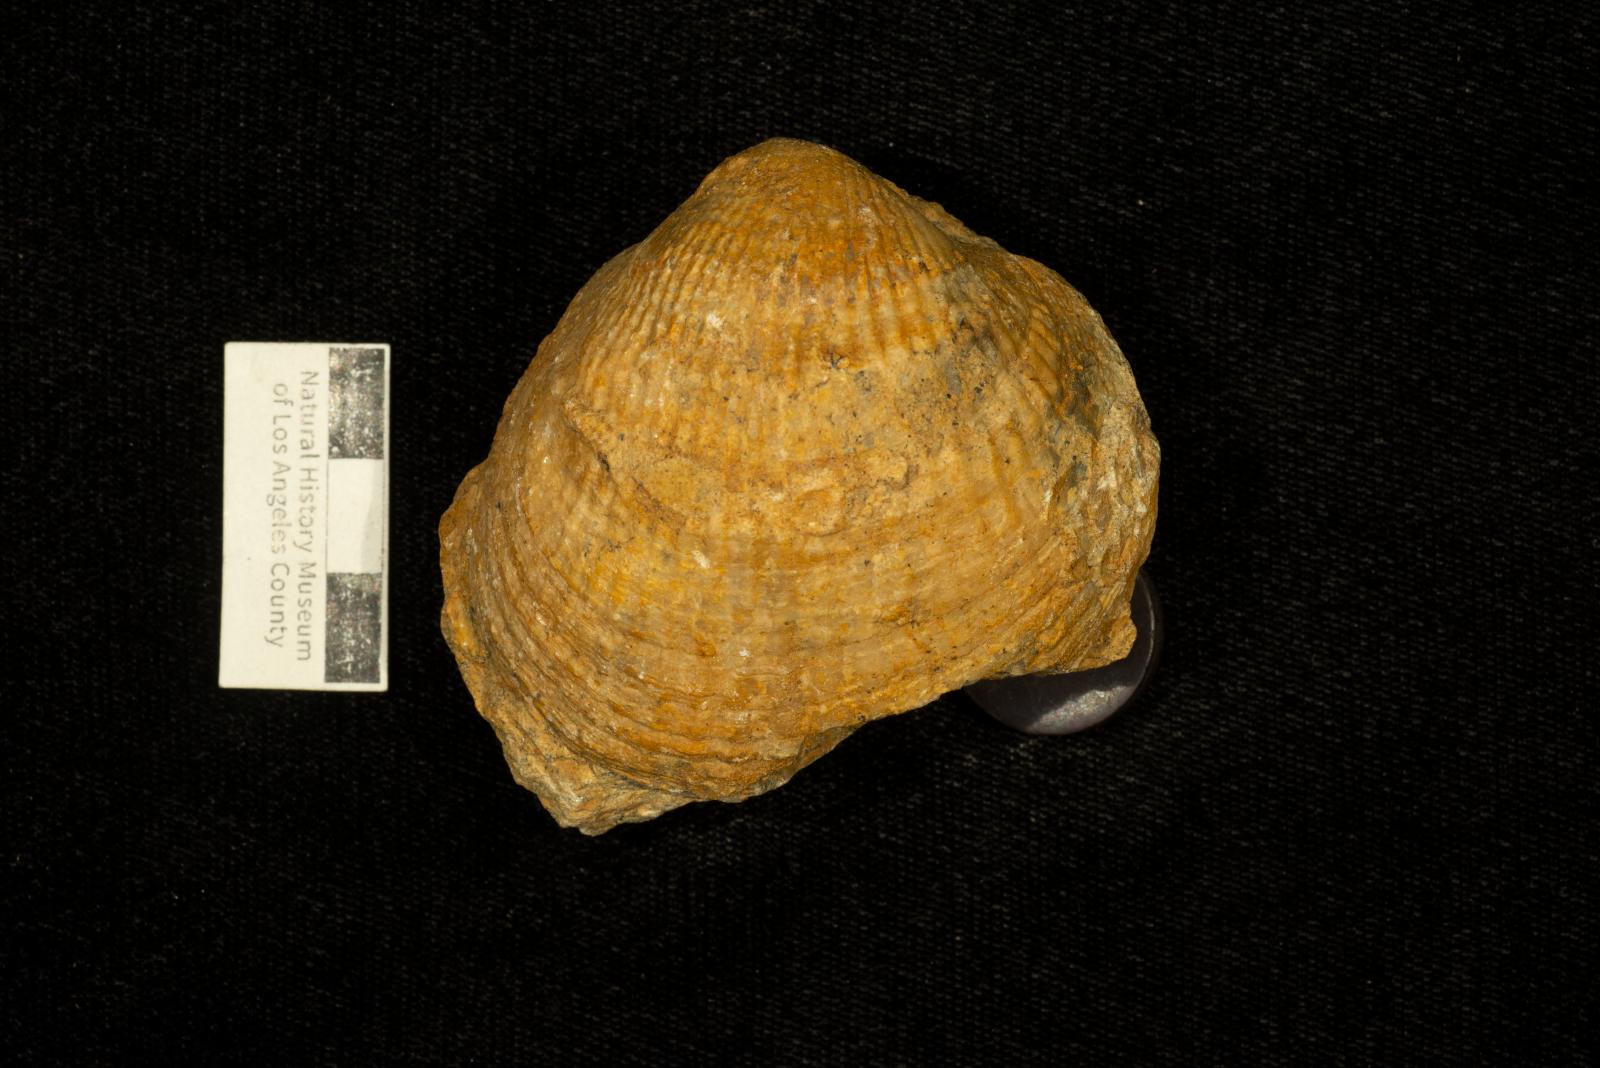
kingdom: Animalia
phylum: Mollusca
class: Bivalvia
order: Arcida
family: Glycymerididae
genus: Glycymerita
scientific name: Glycymerita Glycymeris banosensis
